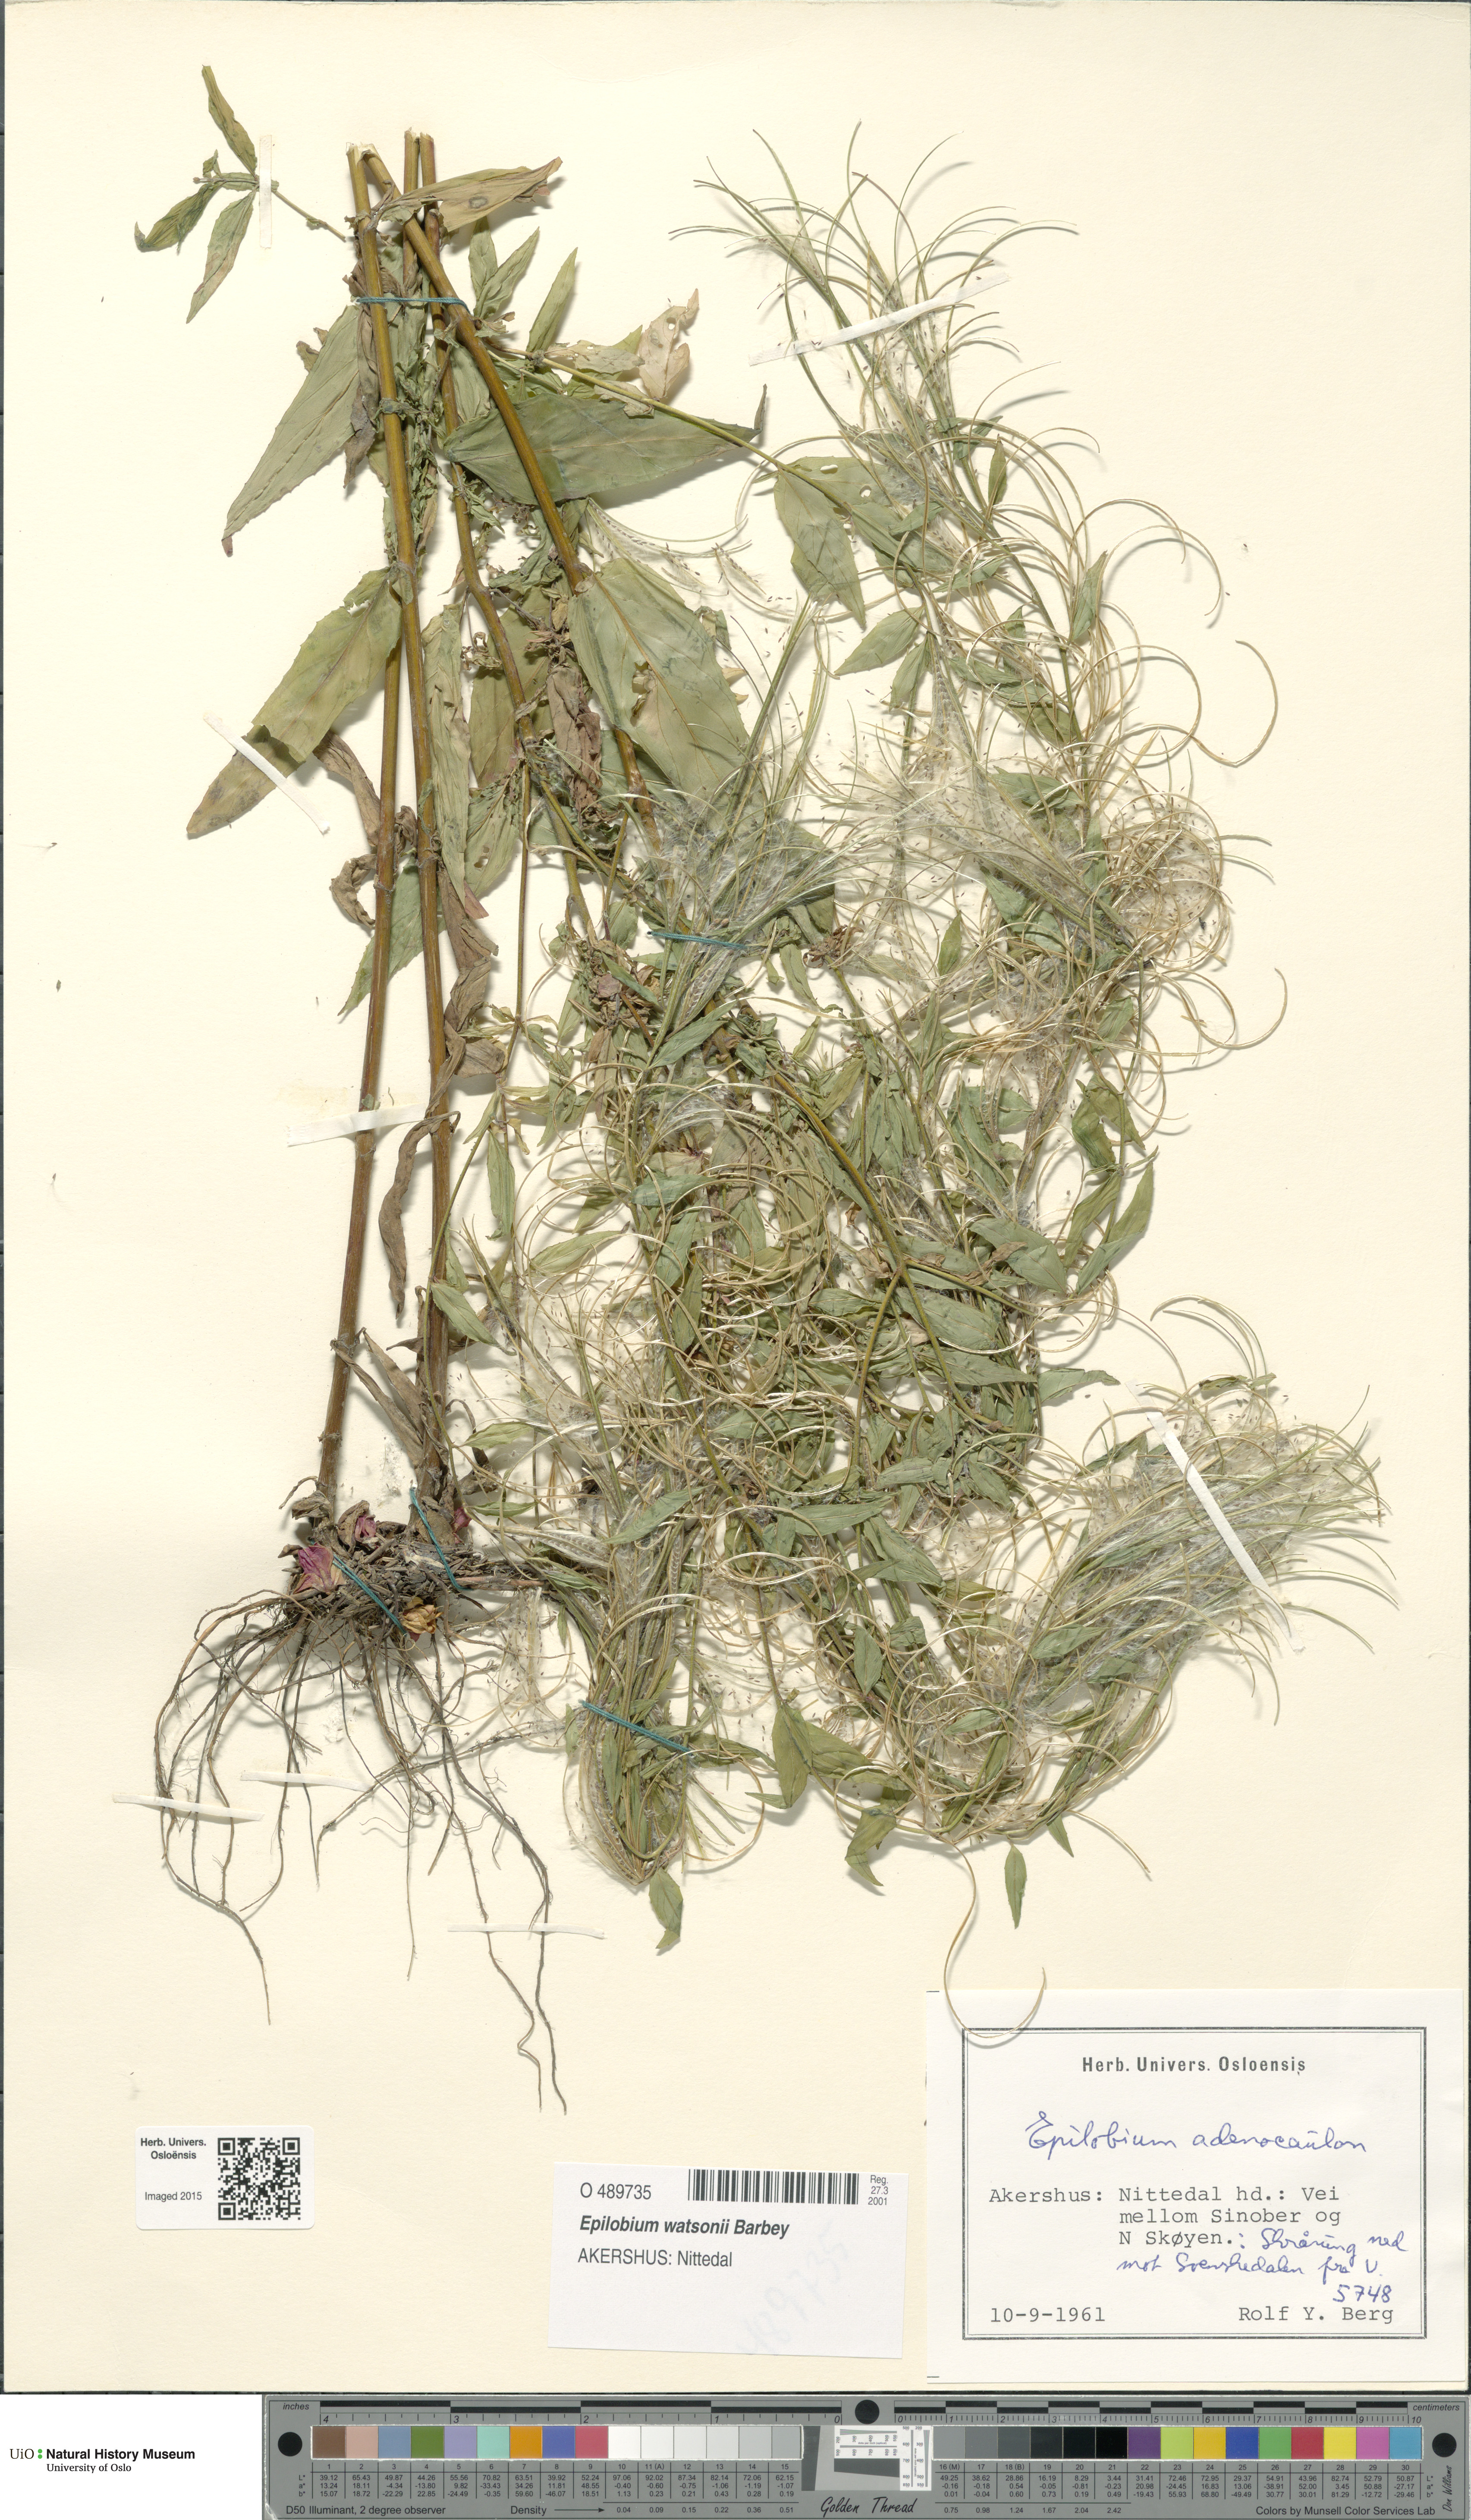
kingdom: Plantae
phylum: Tracheophyta
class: Magnoliopsida
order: Myrtales
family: Onagraceae
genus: Epilobium
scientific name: Epilobium ciliatum
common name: American willowherb
